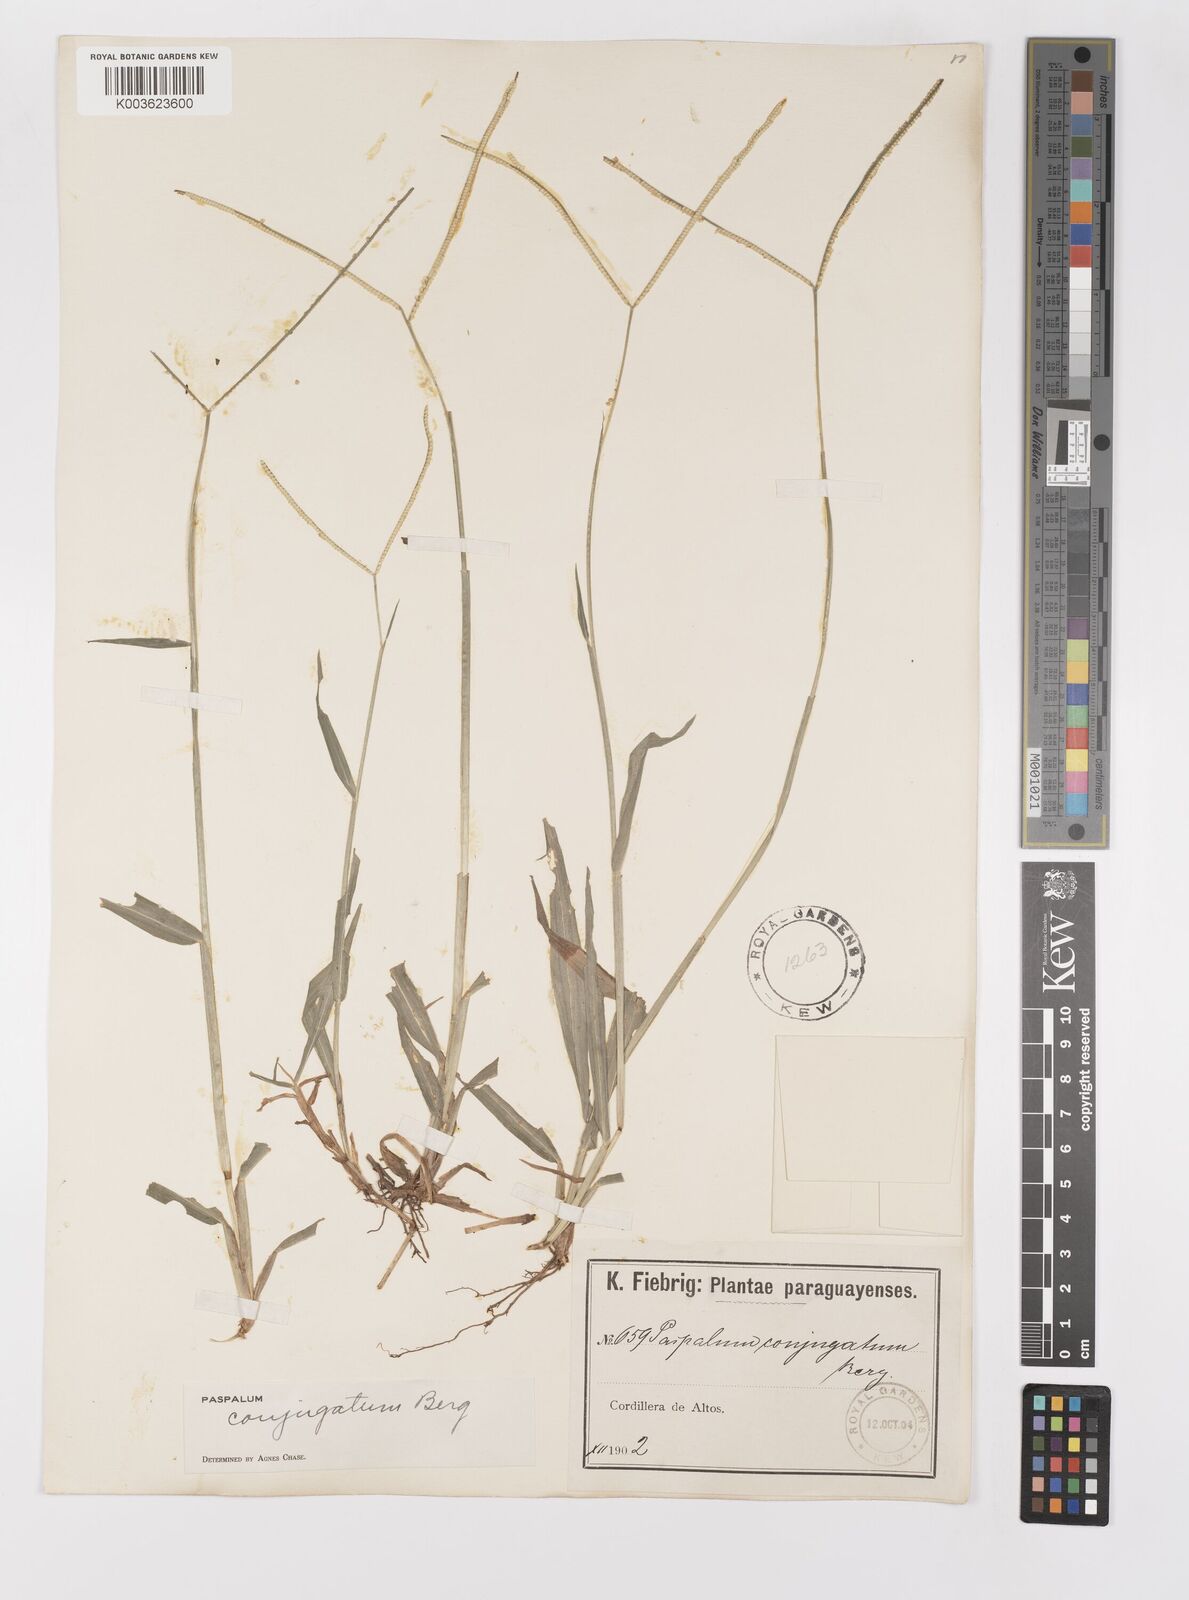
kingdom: Plantae
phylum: Tracheophyta
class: Liliopsida
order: Poales
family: Poaceae
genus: Paspalum
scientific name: Paspalum conjugatum
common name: Hilograss
